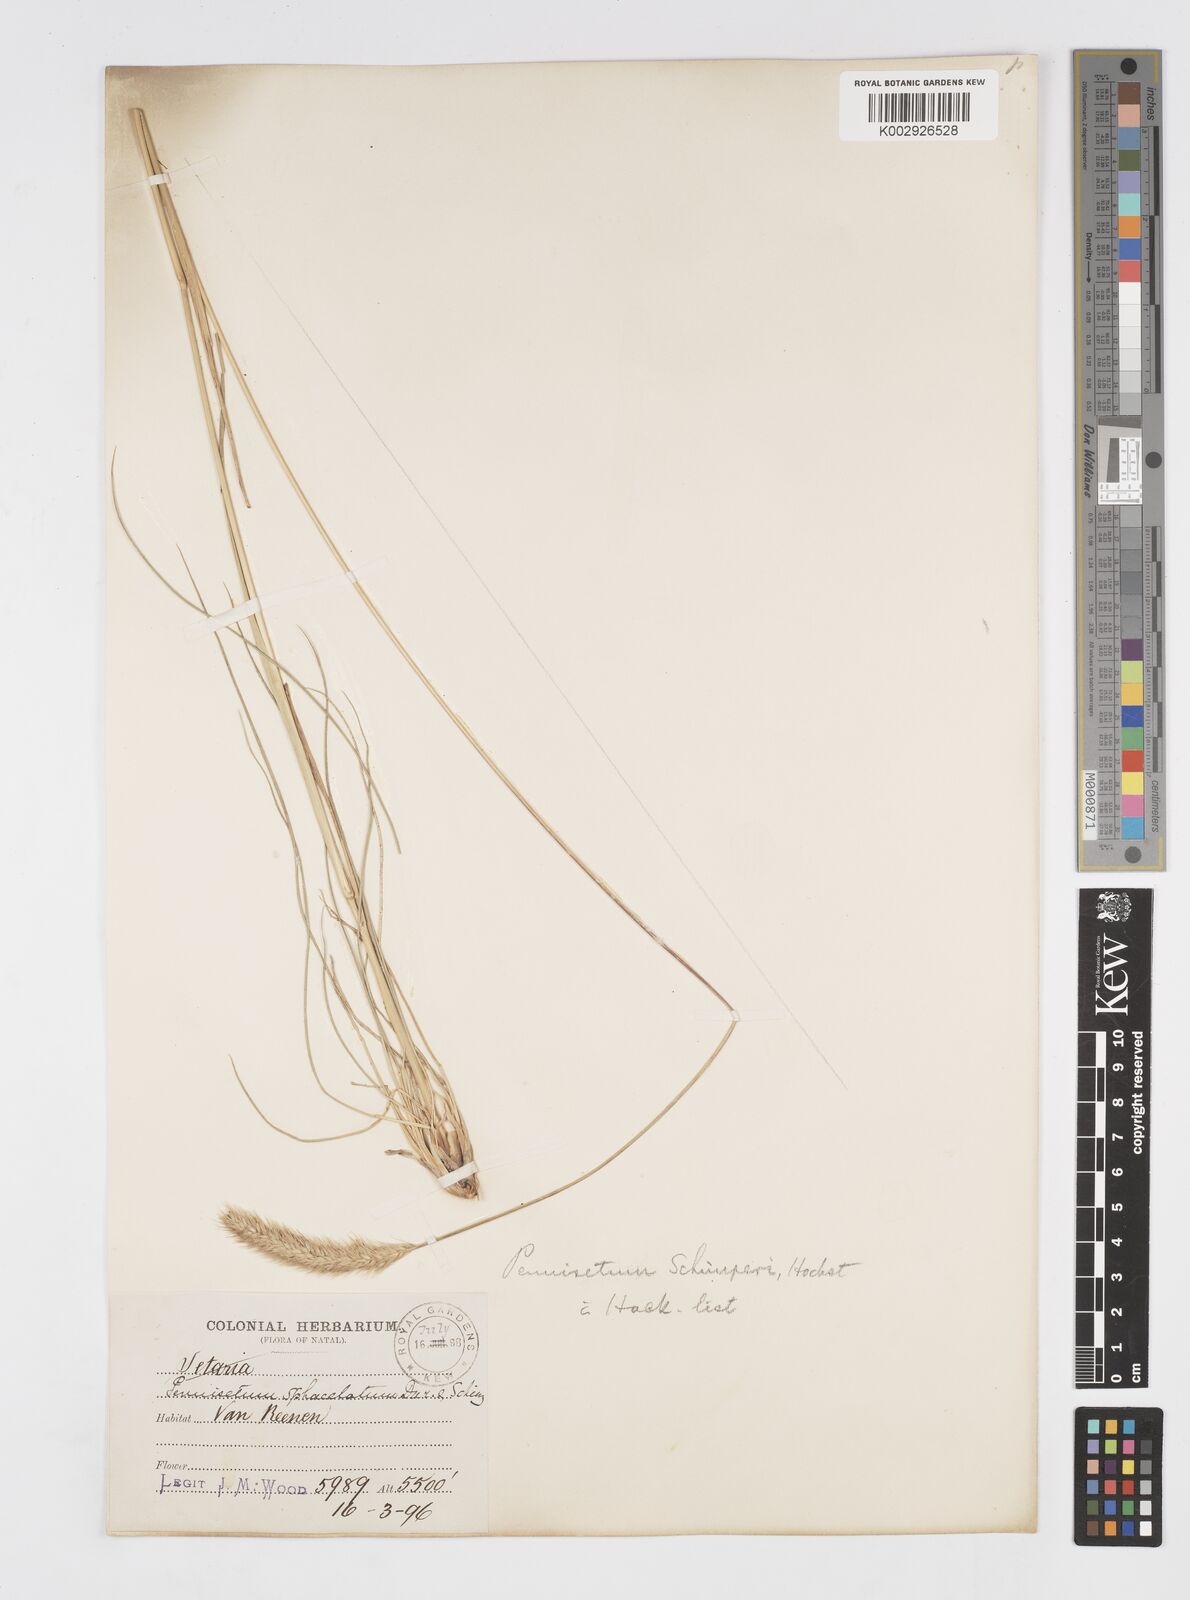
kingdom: Plantae
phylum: Tracheophyta
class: Liliopsida
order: Poales
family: Poaceae
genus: Cenchrus
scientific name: Cenchrus sphacelatus
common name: Bulgras
